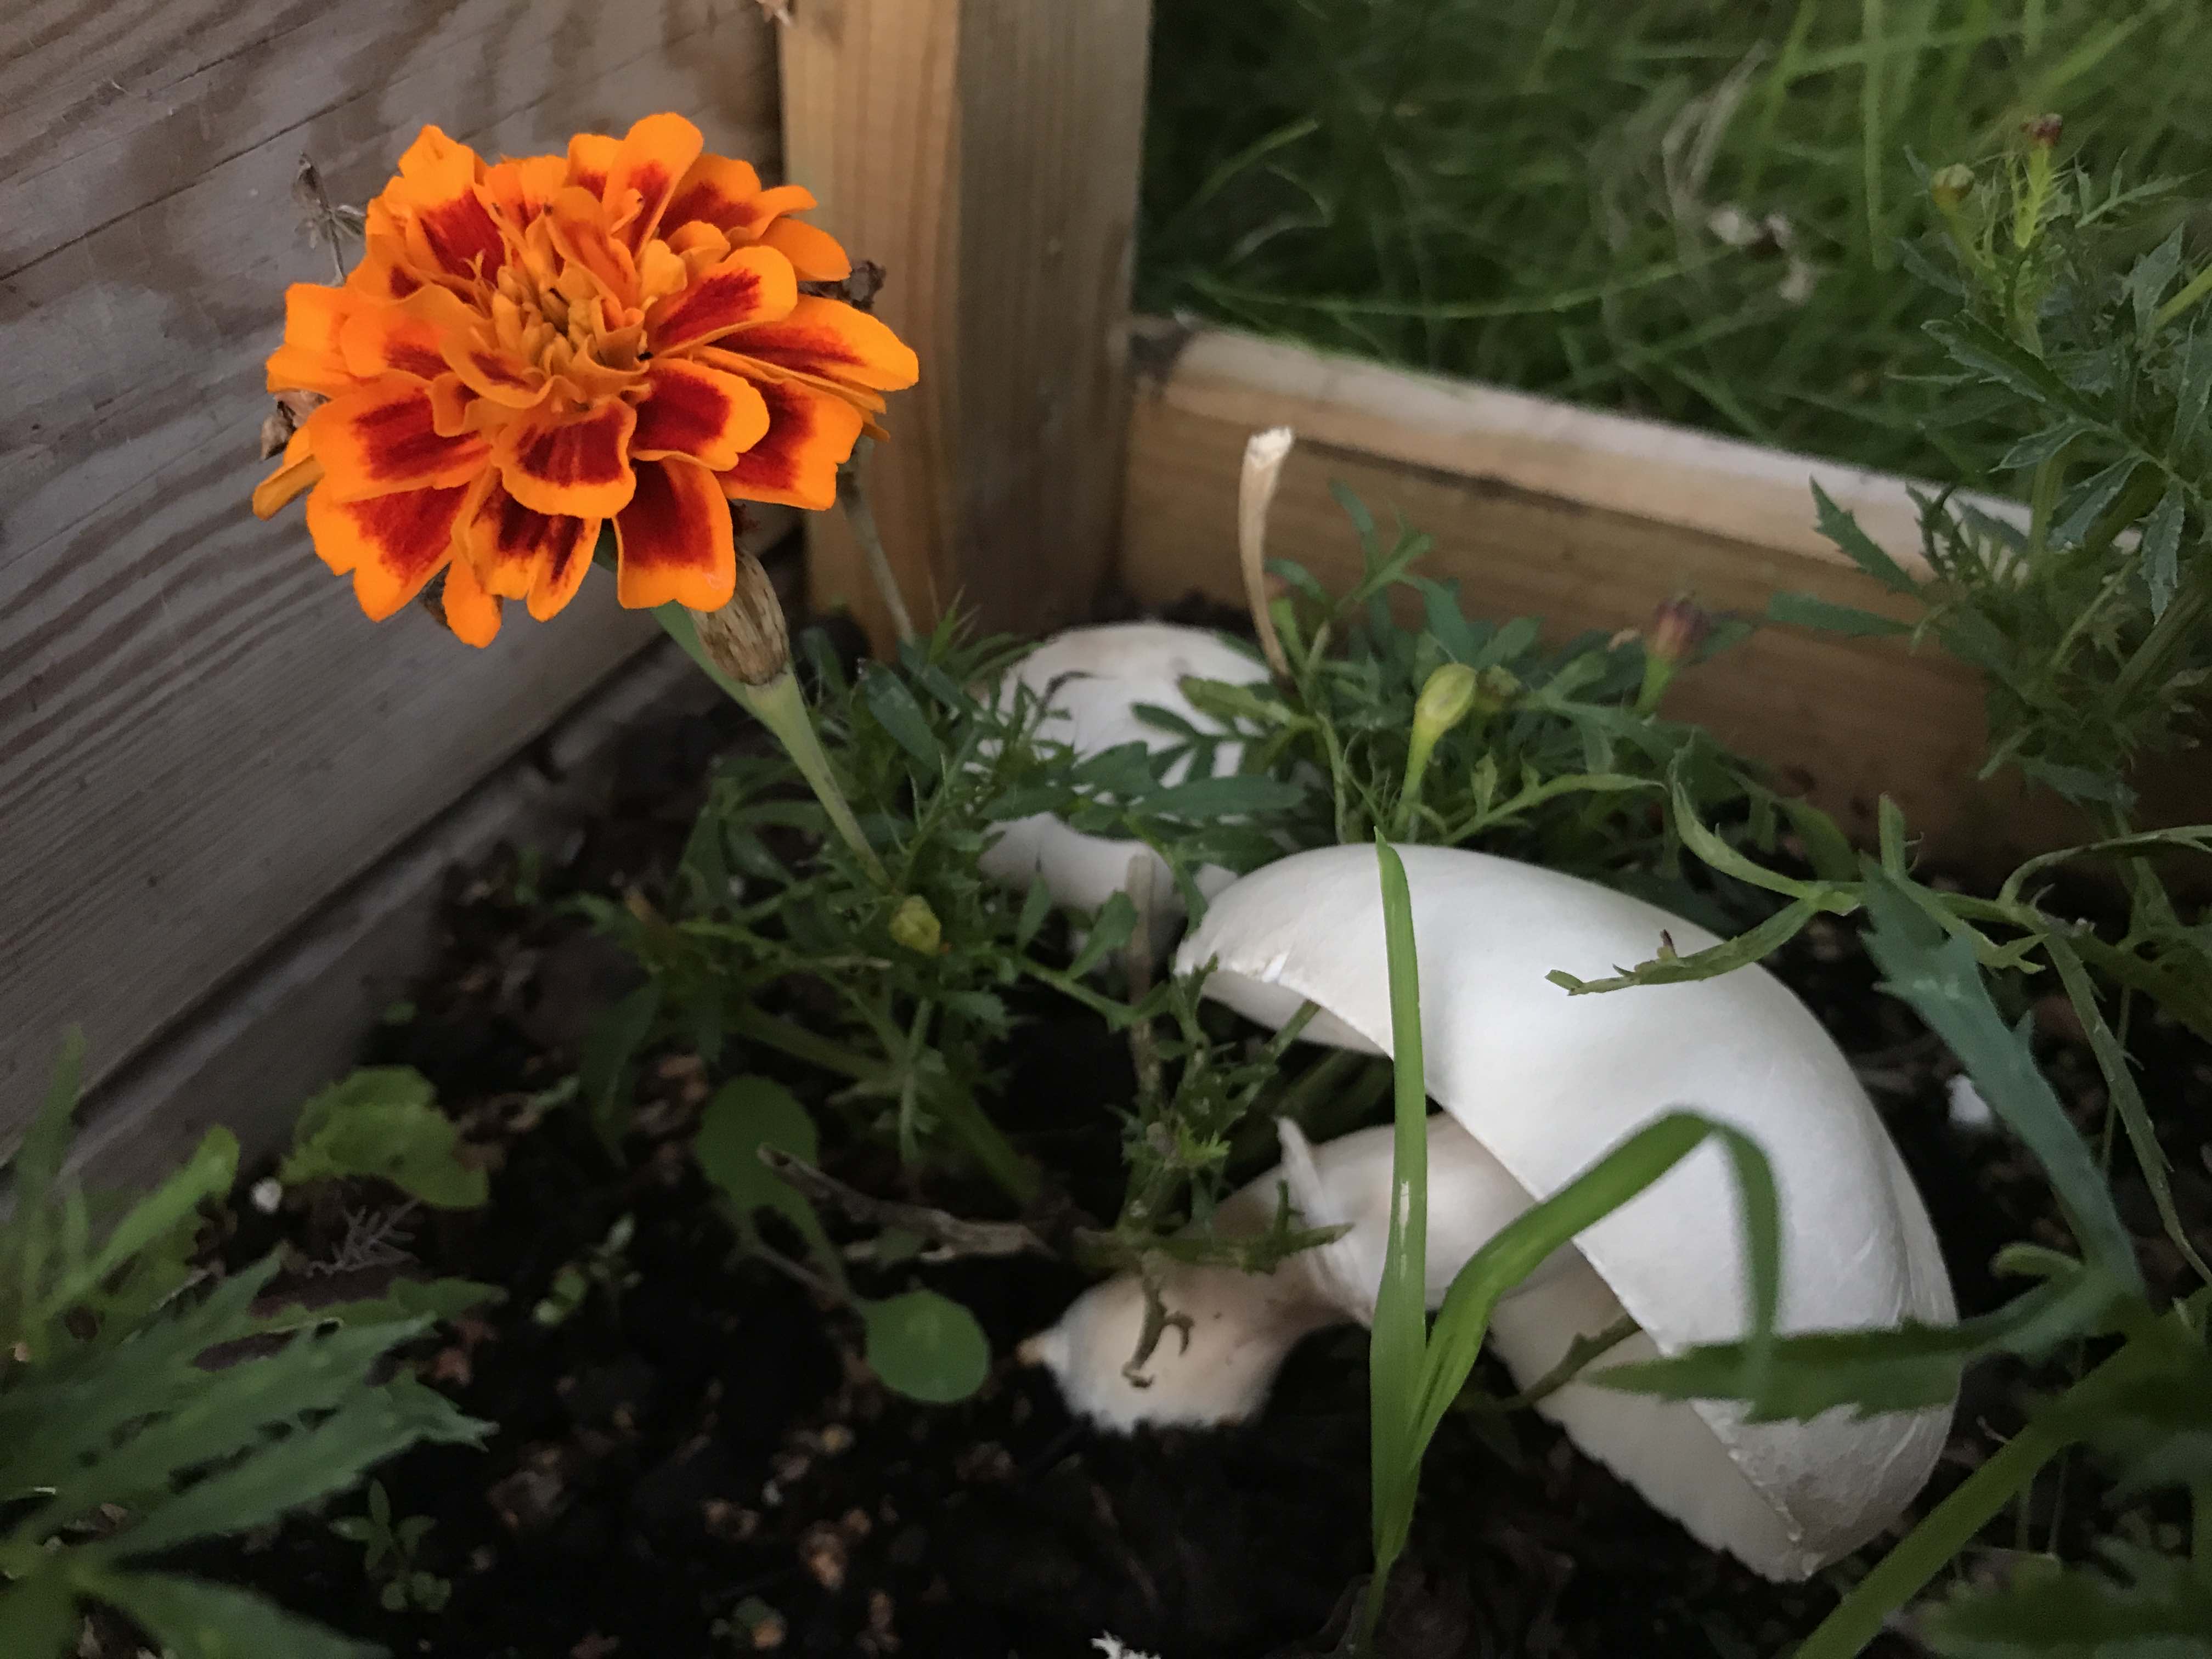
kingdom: Fungi
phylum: Basidiomycota
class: Agaricomycetes
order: Agaricales
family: Agaricaceae
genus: Leucoagaricus
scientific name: Leucoagaricus leucothites
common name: rosabladet silkehat
